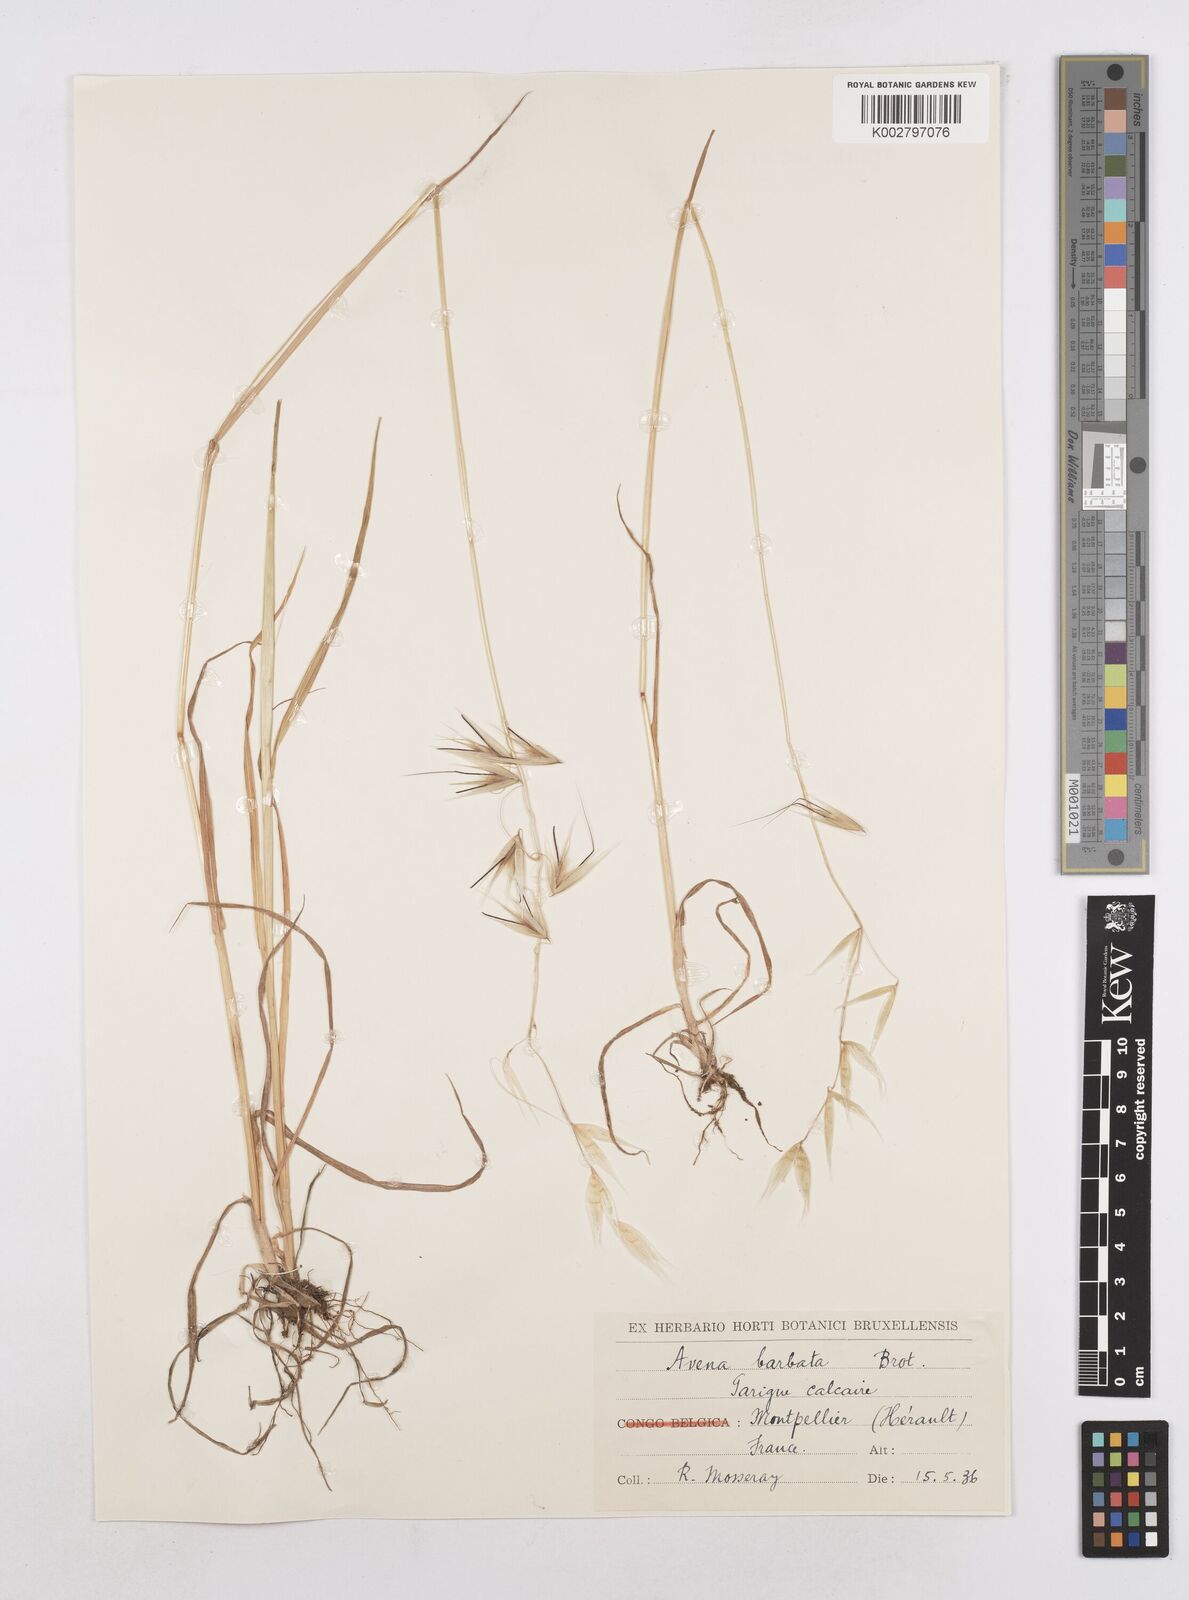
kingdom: Plantae
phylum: Tracheophyta
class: Liliopsida
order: Poales
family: Poaceae
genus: Avena
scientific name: Avena
